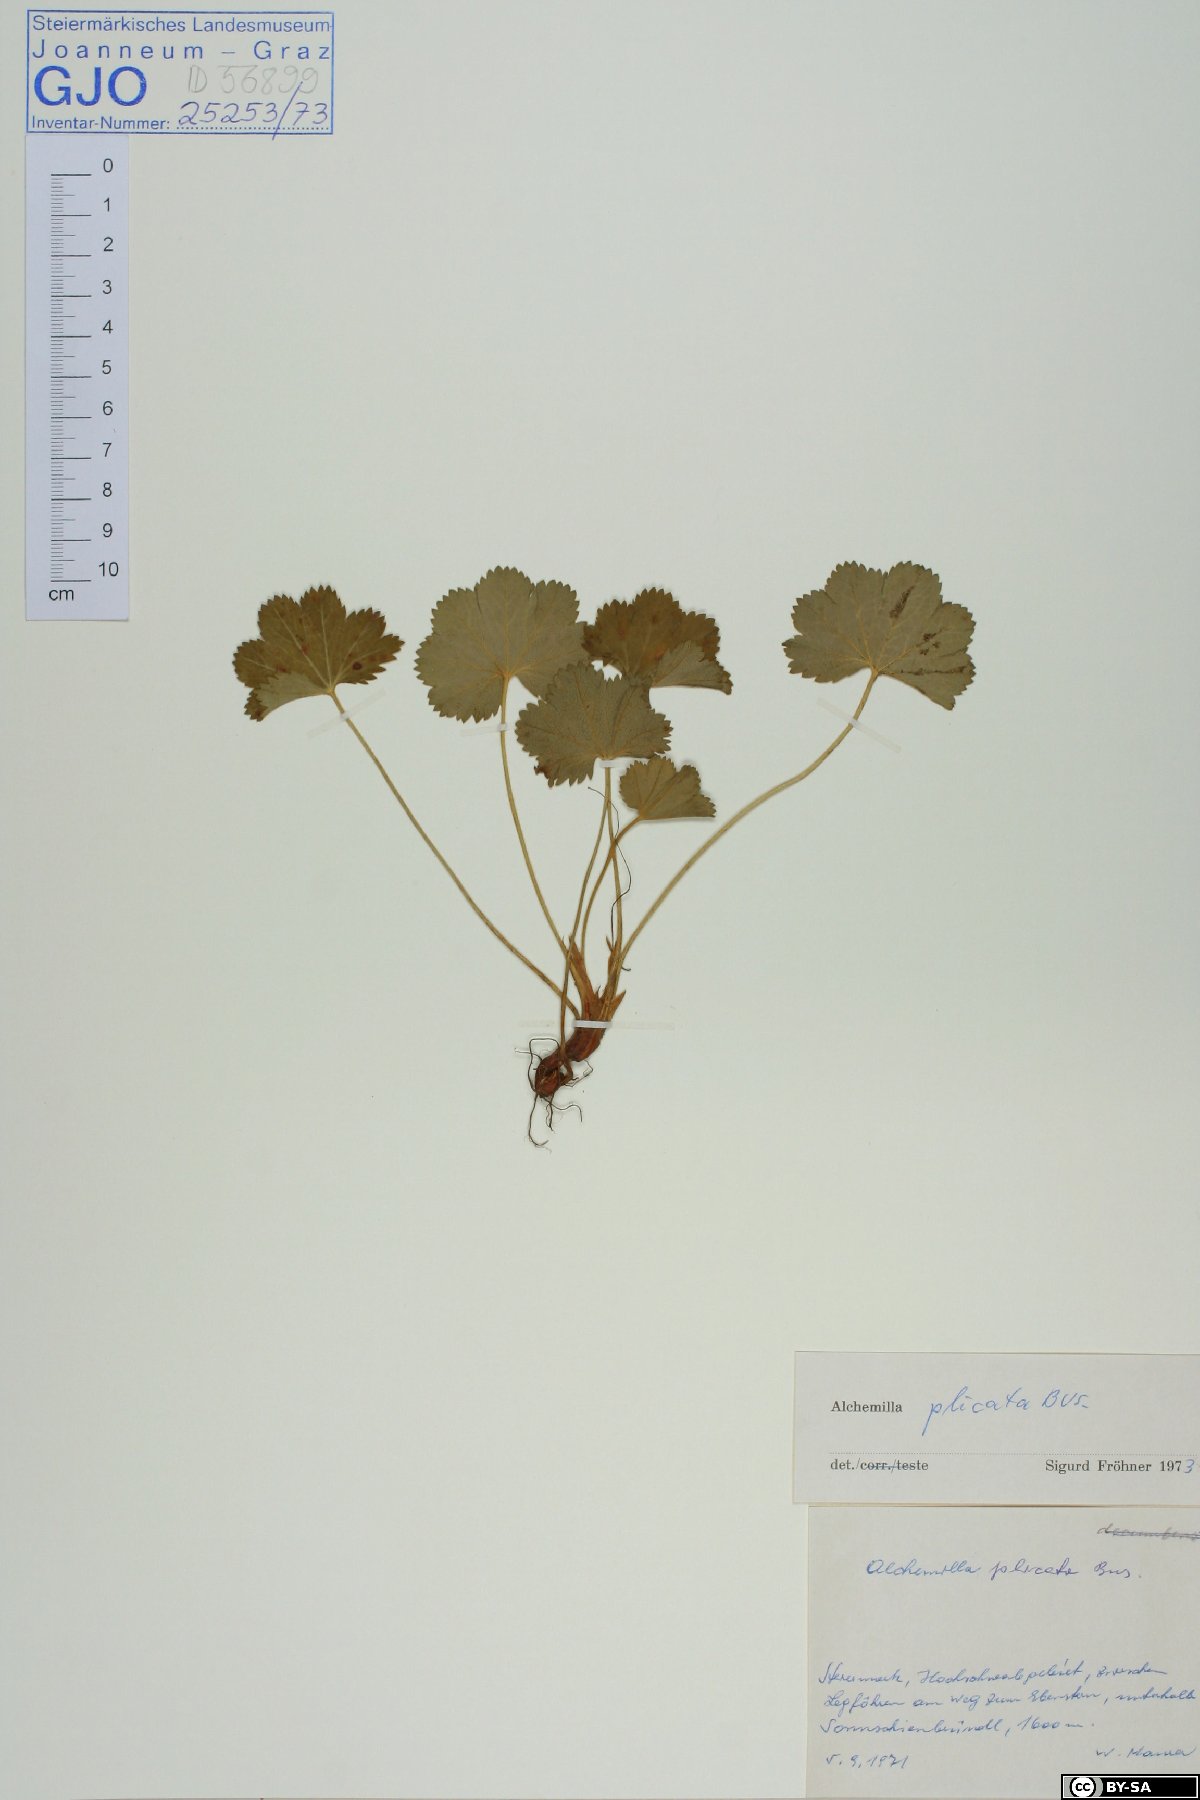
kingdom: Plantae
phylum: Tracheophyta
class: Magnoliopsida
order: Rosales
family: Rosaceae
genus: Alchemilla
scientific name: Alchemilla plicata
